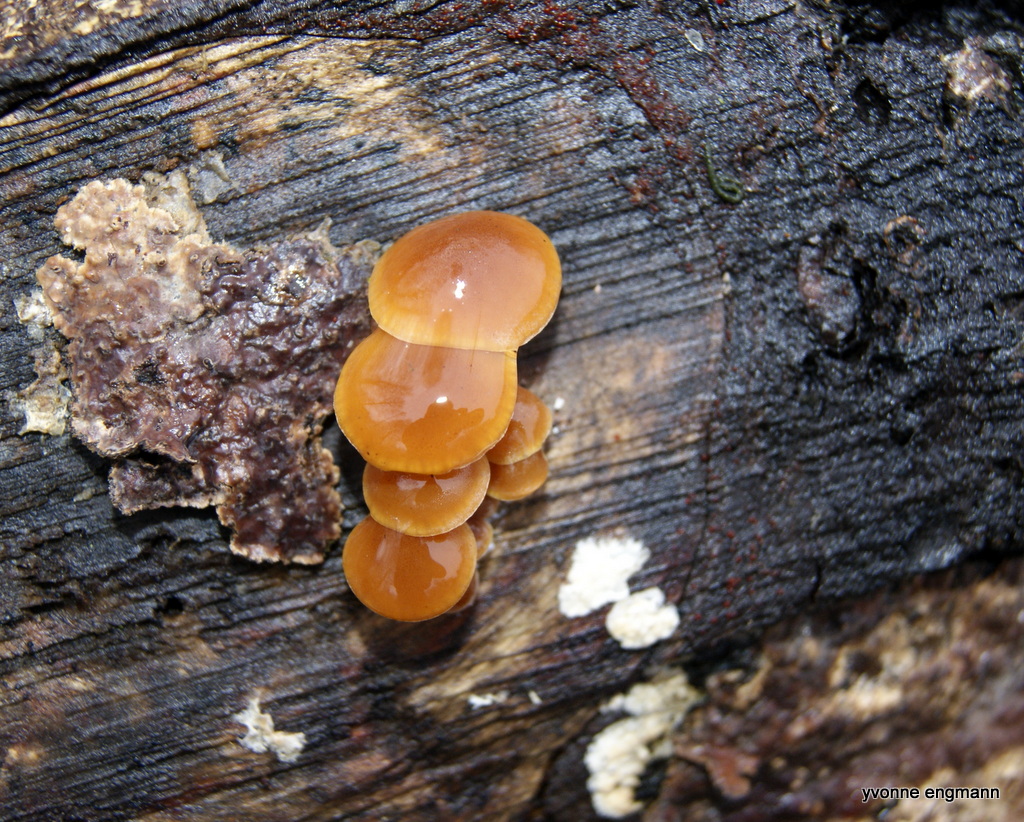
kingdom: Fungi
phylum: Basidiomycota
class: Agaricomycetes
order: Agaricales
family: Physalacriaceae
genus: Flammulina
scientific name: Flammulina
